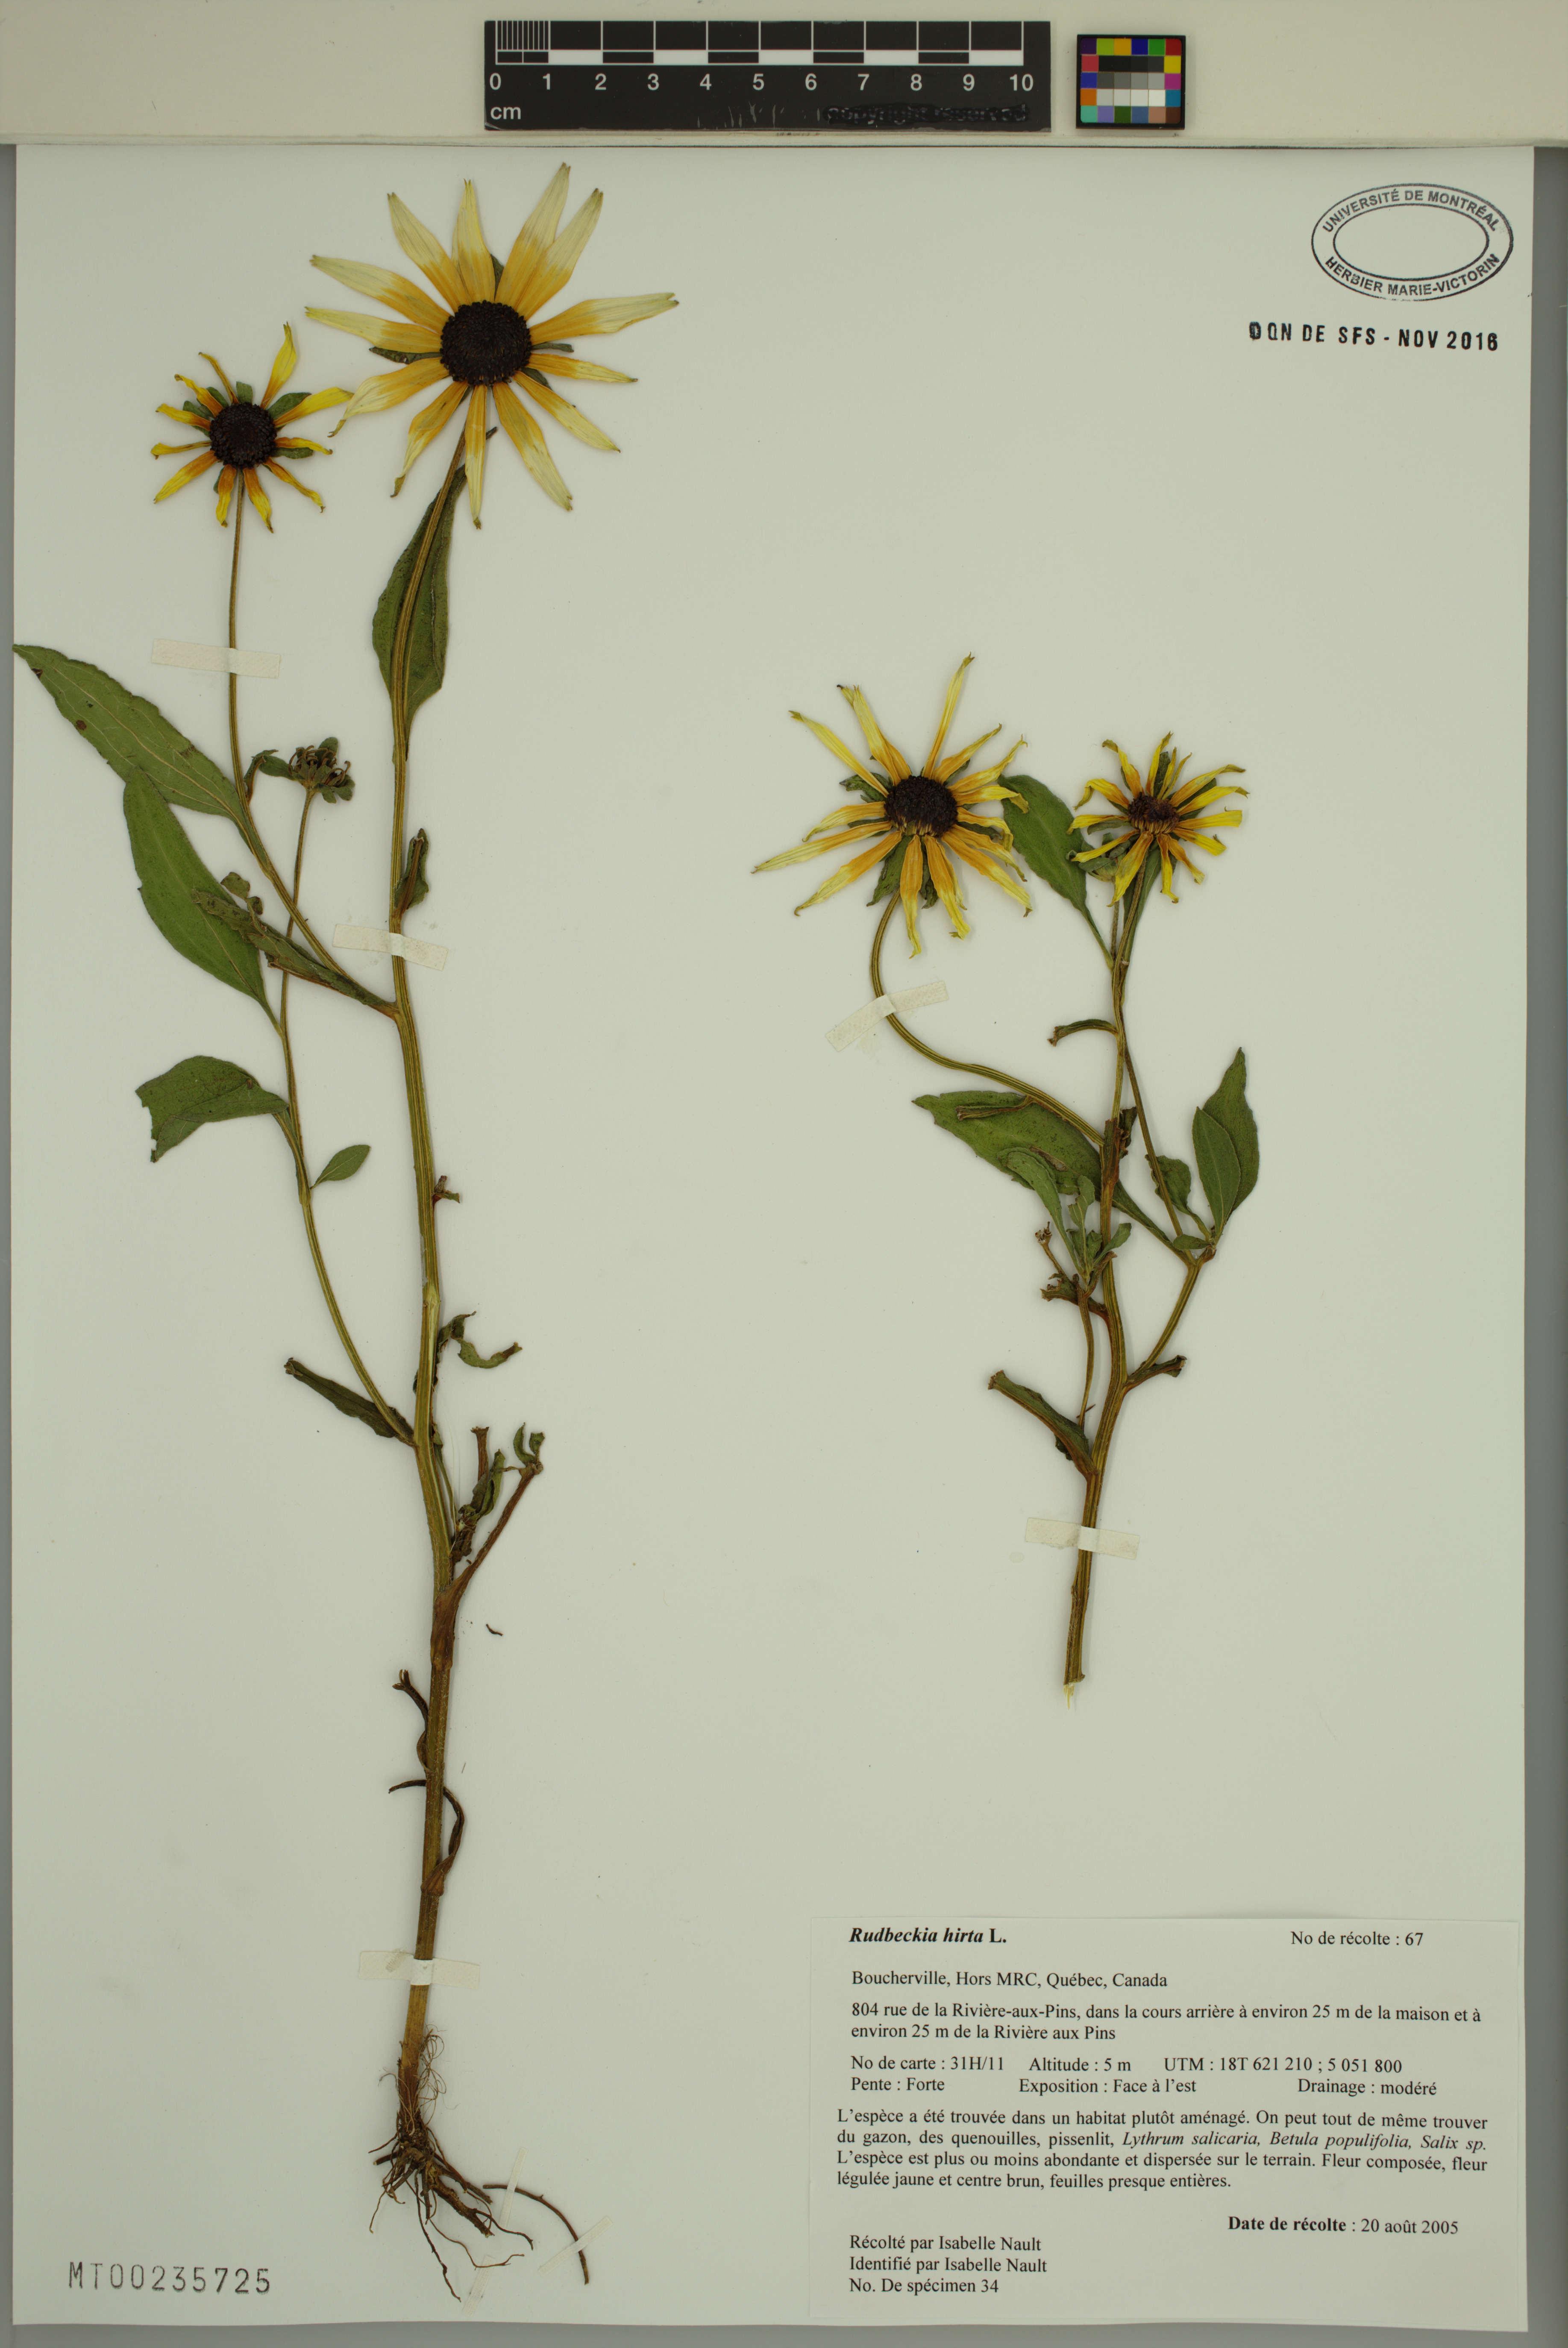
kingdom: Plantae
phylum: Tracheophyta
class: Magnoliopsida
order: Asterales
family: Asteraceae
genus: Rudbeckia
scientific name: Rudbeckia hirta
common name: Black-eyed-susan
